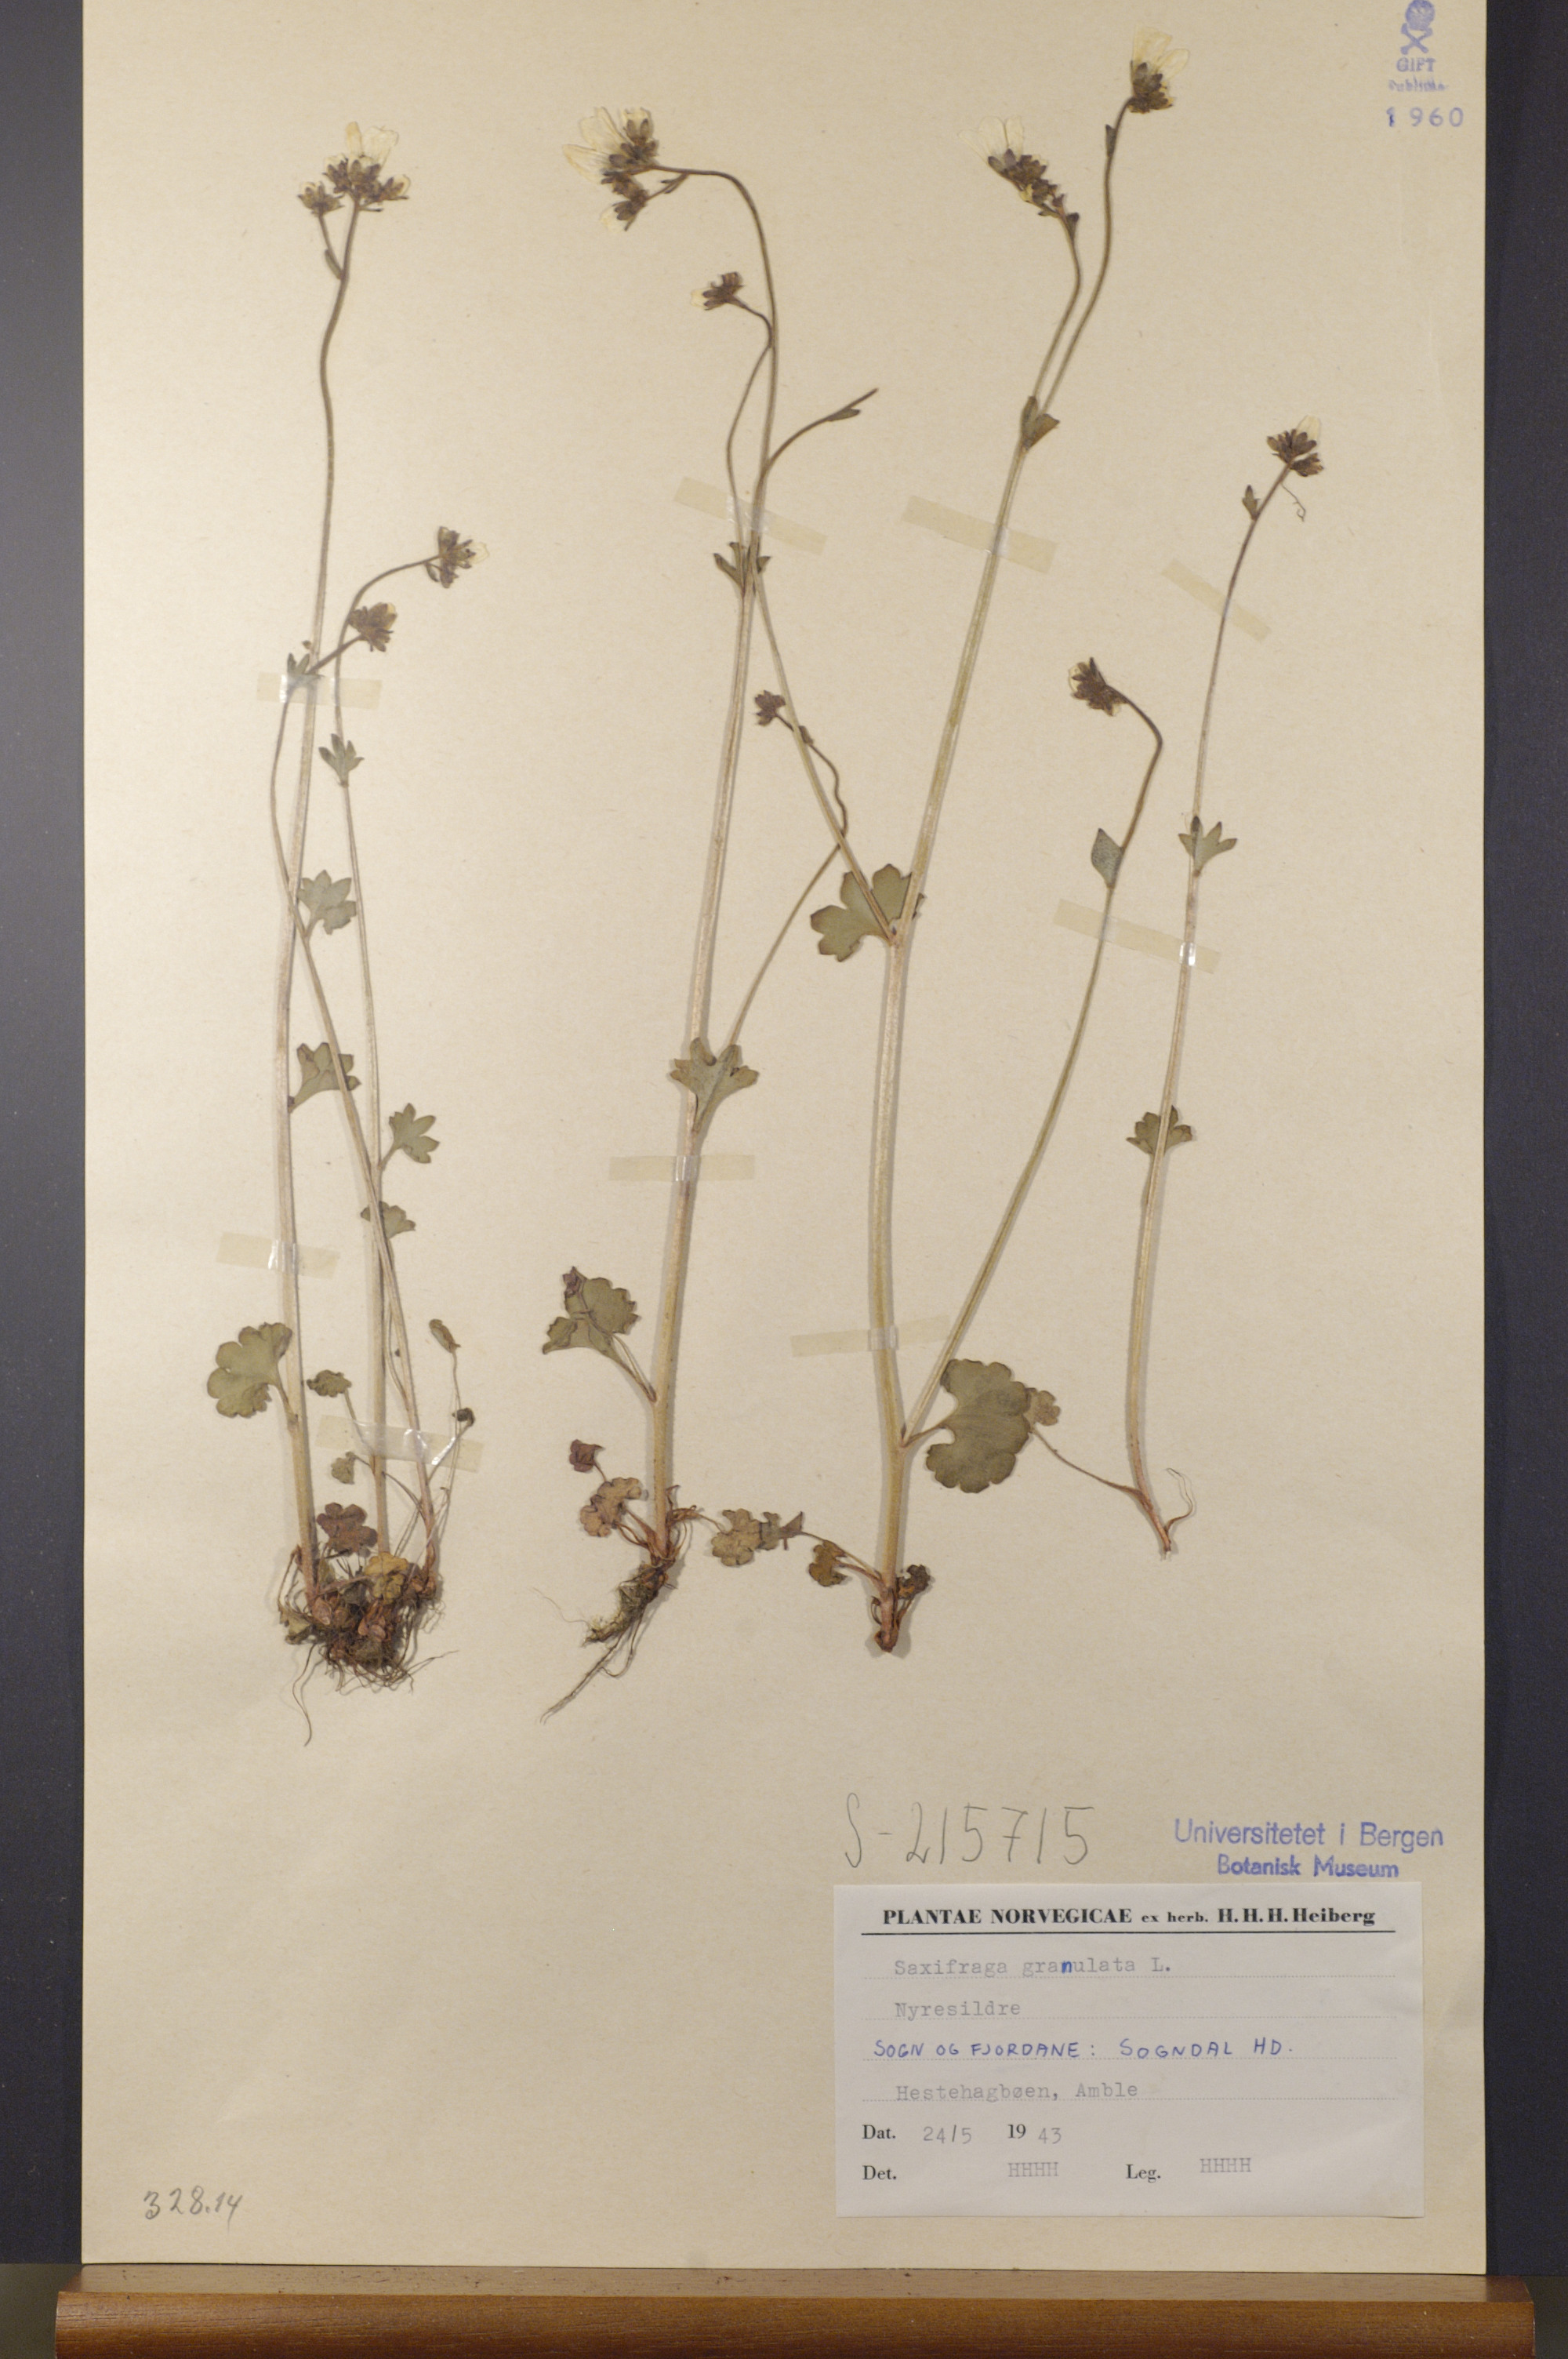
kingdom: Plantae
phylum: Tracheophyta
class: Magnoliopsida
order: Saxifragales
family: Saxifragaceae
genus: Saxifraga
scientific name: Saxifraga granulata
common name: Meadow saxifrage
